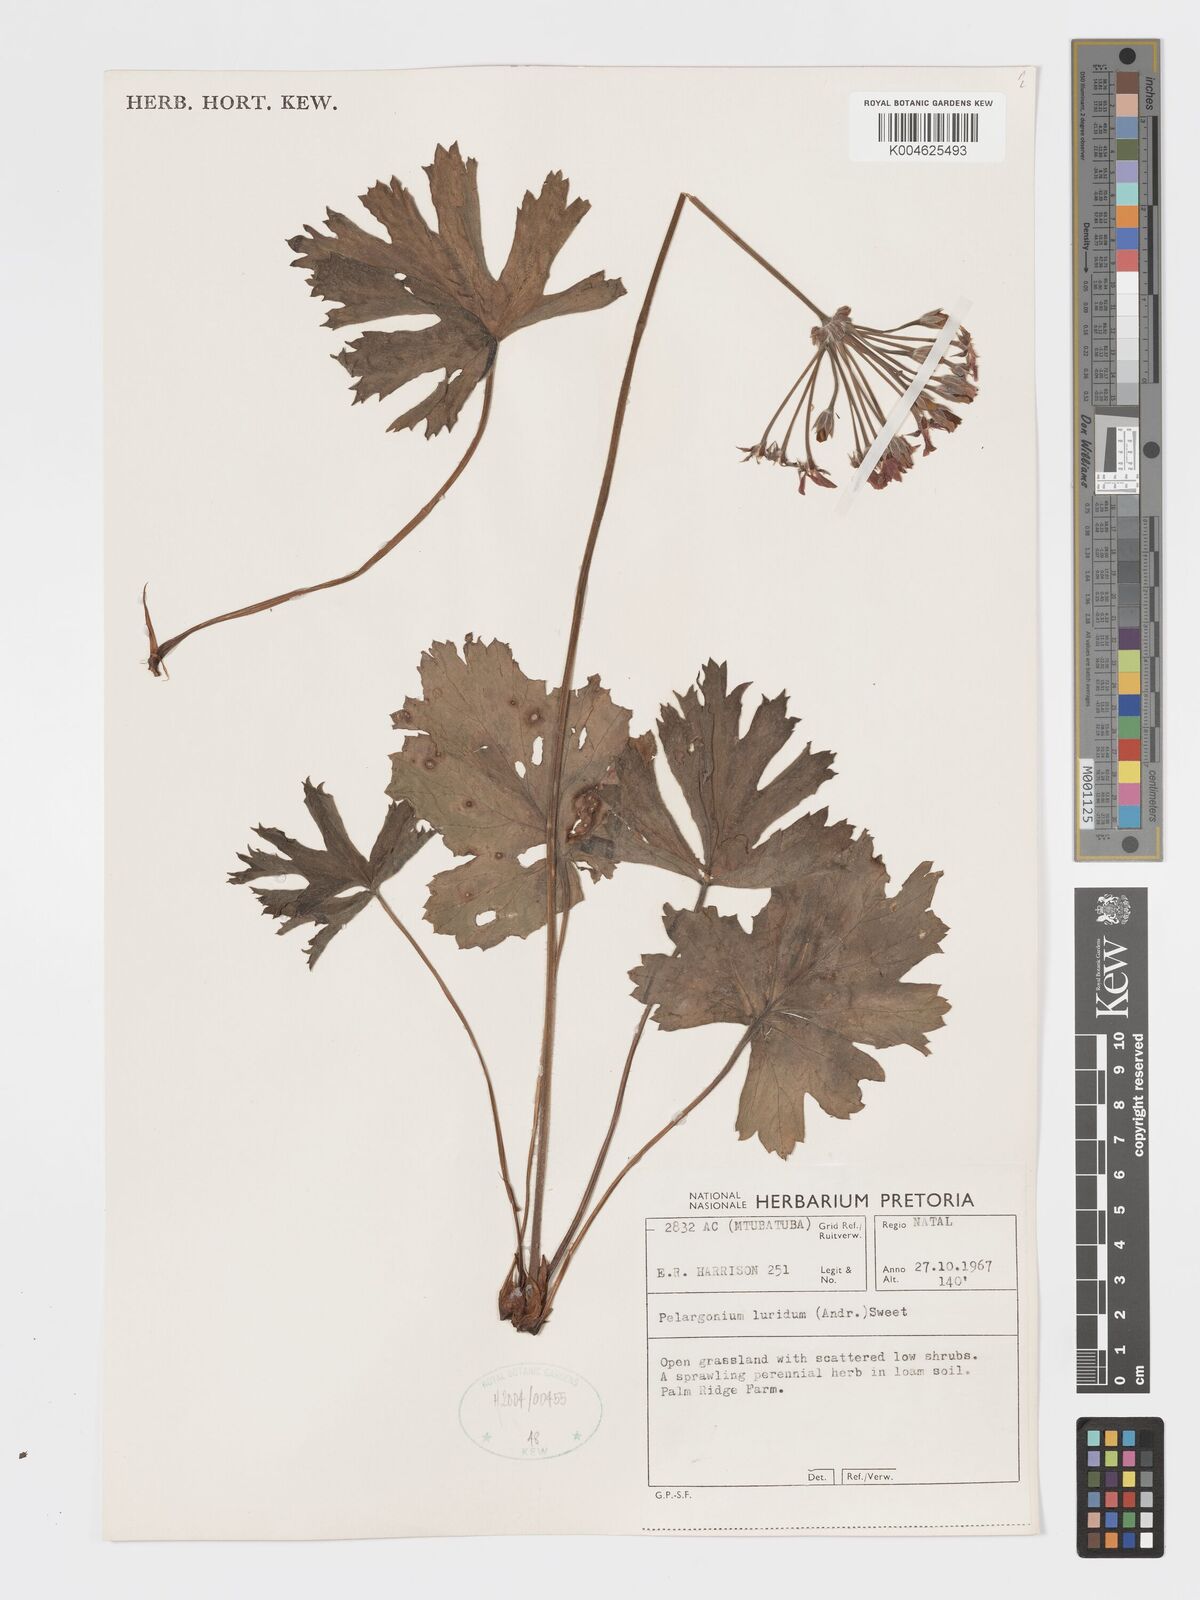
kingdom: Plantae
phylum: Tracheophyta
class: Magnoliopsida
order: Geraniales
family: Geraniaceae
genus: Pelargonium
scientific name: Pelargonium luridum
